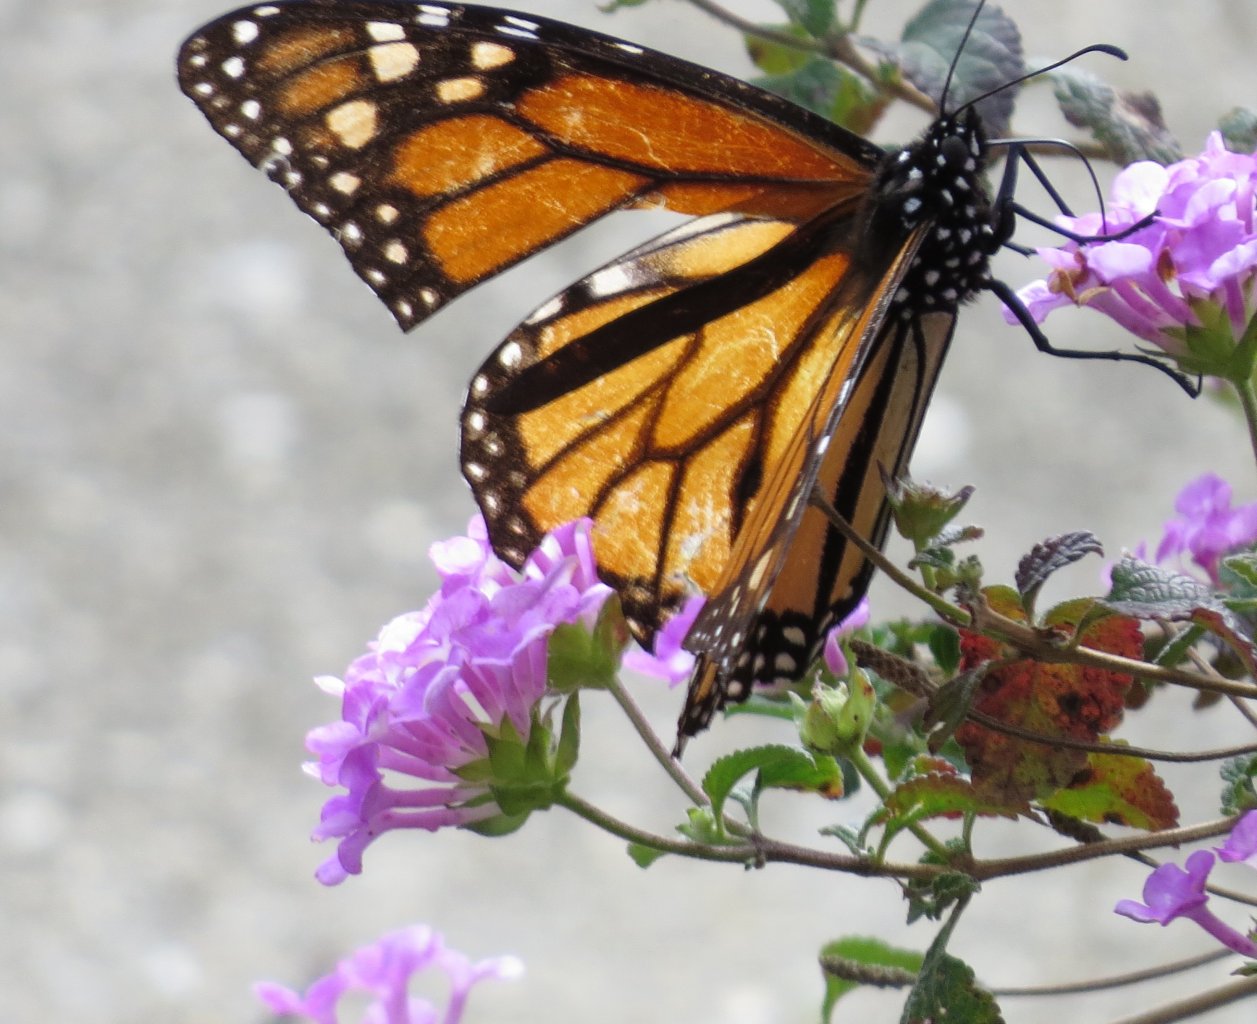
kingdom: Animalia
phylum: Arthropoda
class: Insecta
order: Lepidoptera
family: Nymphalidae
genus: Danaus
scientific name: Danaus plexippus
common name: Monarch
